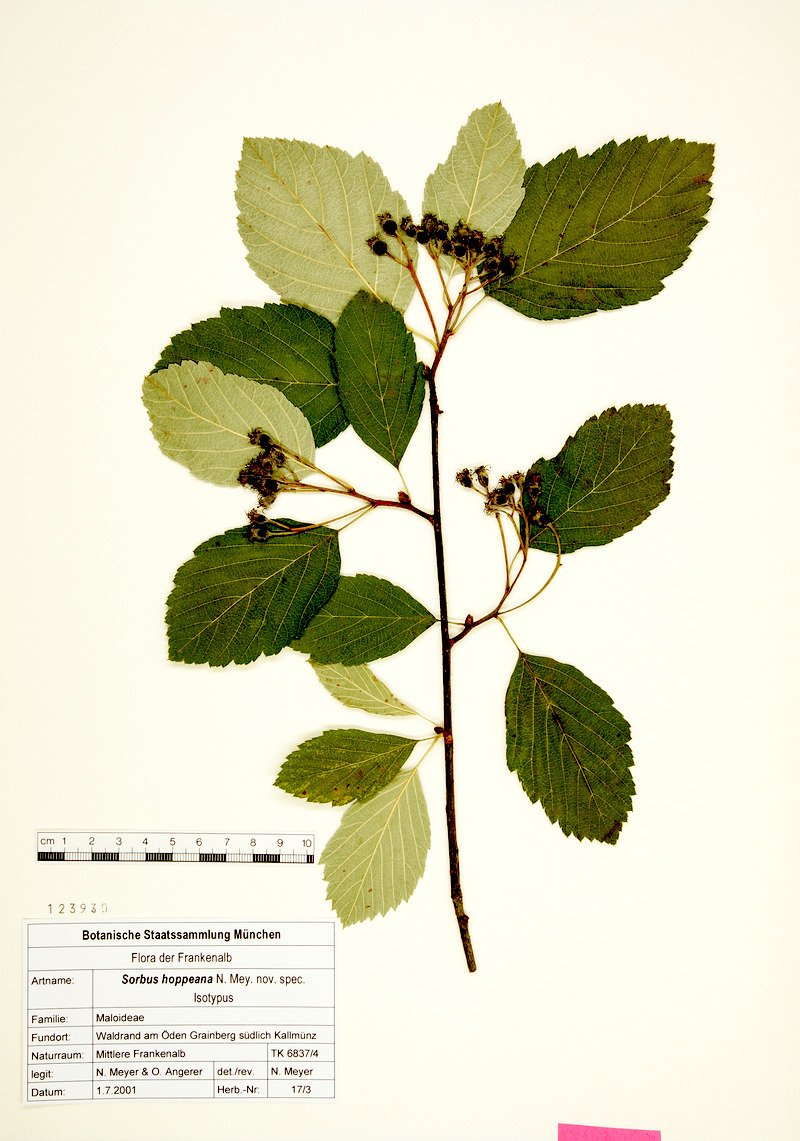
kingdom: Plantae
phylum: Tracheophyta
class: Magnoliopsida
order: Rosales
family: Rosaceae
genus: Karpatiosorbus
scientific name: Karpatiosorbus hoppeana
